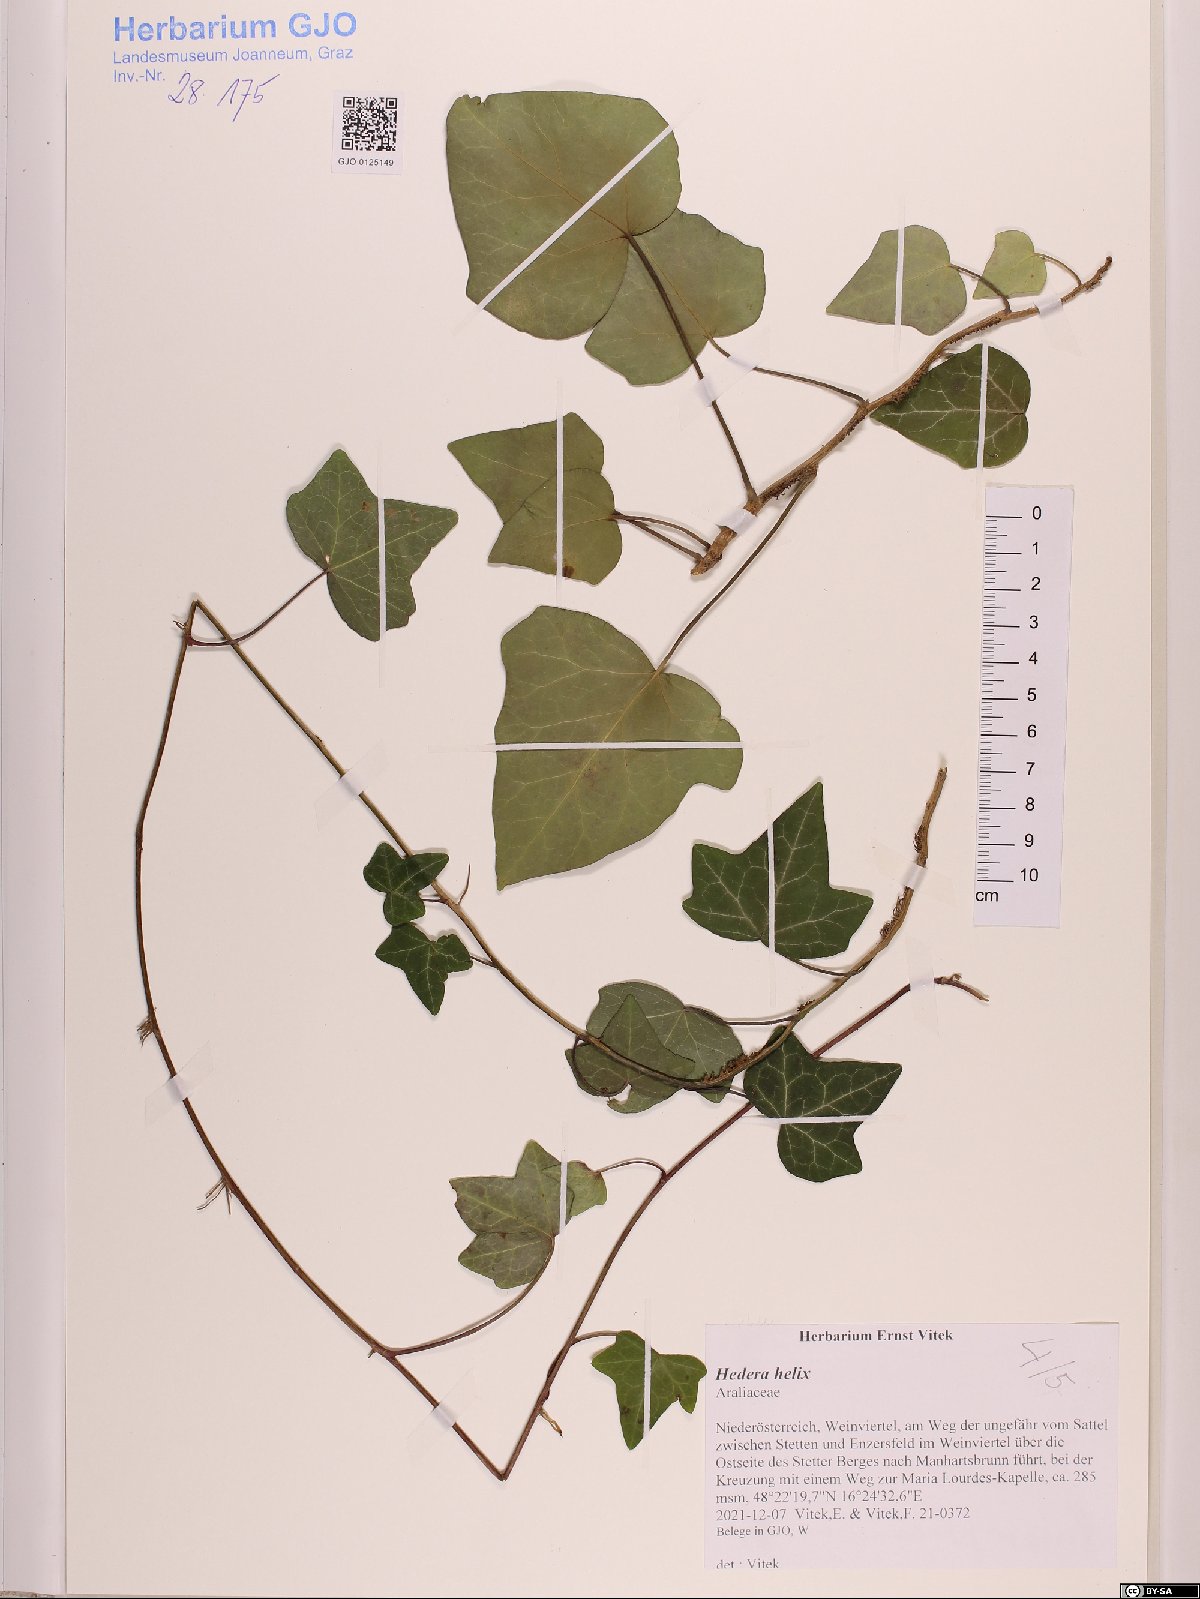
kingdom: Plantae
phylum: Tracheophyta
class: Magnoliopsida
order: Apiales
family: Araliaceae
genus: Hedera
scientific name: Hedera helix
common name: Ivy
